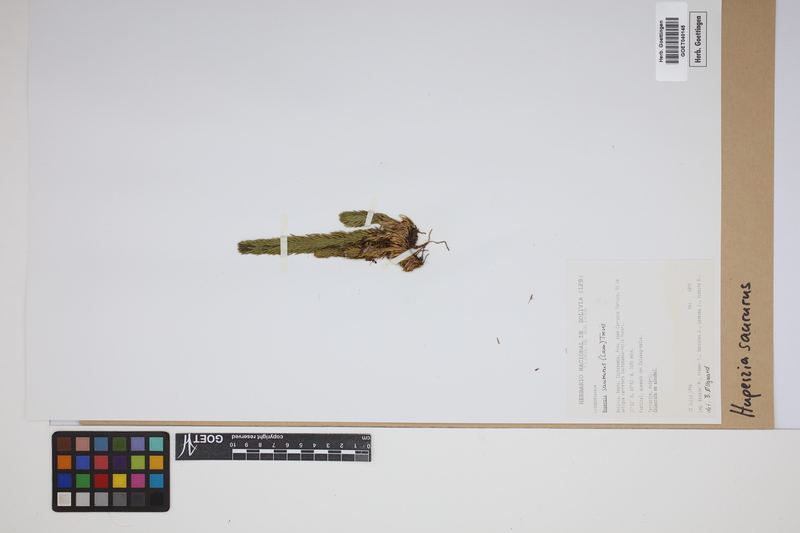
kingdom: Plantae
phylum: Tracheophyta
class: Lycopodiopsida
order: Lycopodiales
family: Lycopodiaceae
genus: Phlegmariurus
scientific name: Phlegmariurus saururus
